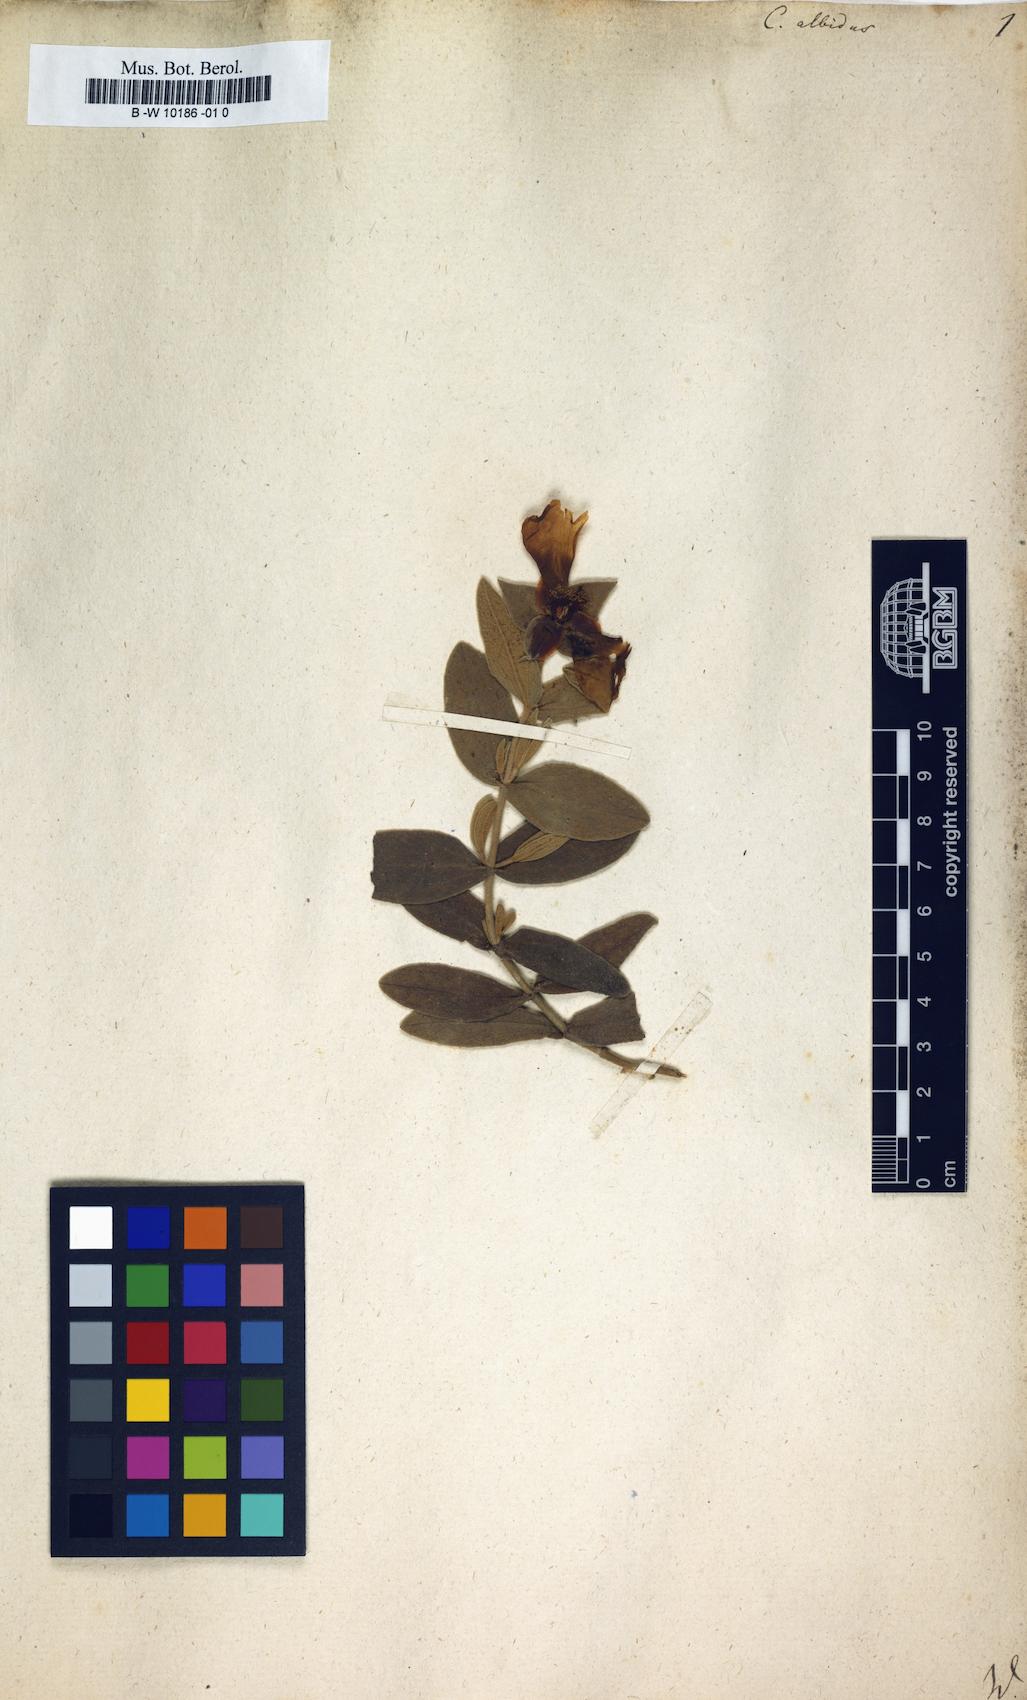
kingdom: Plantae
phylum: Tracheophyta
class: Magnoliopsida
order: Malvales
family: Cistaceae
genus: Cistus
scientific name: Cistus albidus
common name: White-leaf rock-rose
